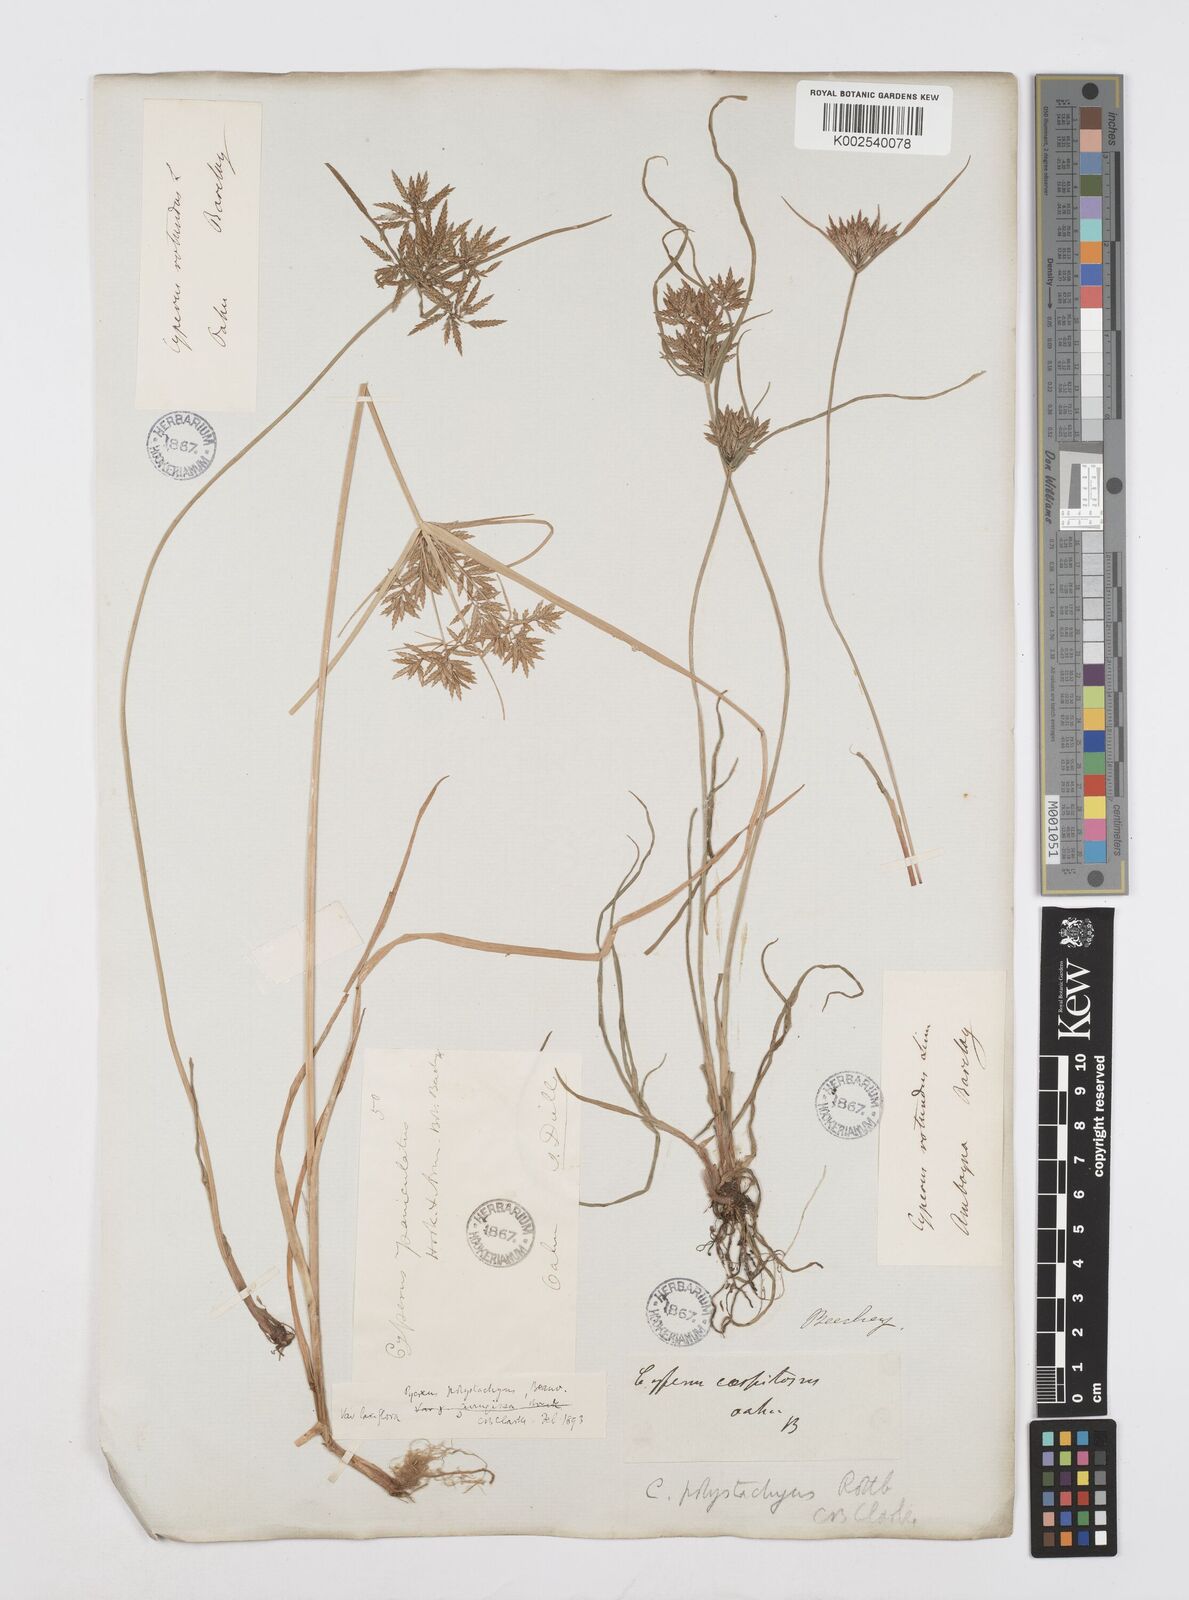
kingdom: Plantae
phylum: Tracheophyta
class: Liliopsida
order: Poales
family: Cyperaceae
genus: Cyperus
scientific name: Cyperus polystachyos
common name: Bunchy flat sedge
